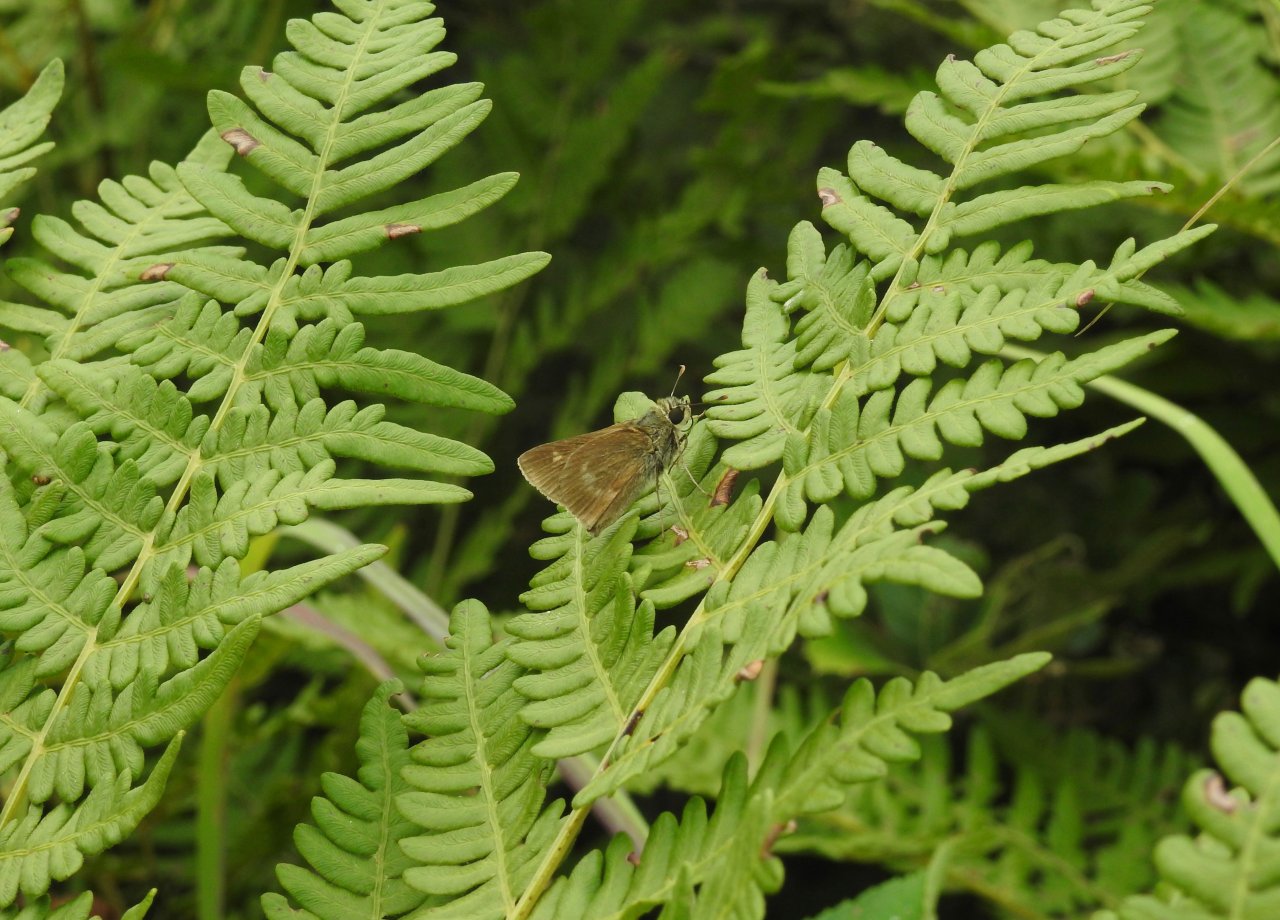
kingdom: Animalia
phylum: Arthropoda
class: Insecta
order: Lepidoptera
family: Hesperiidae
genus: Polites
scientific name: Polites egeremet
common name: Northern Broken-Dash
